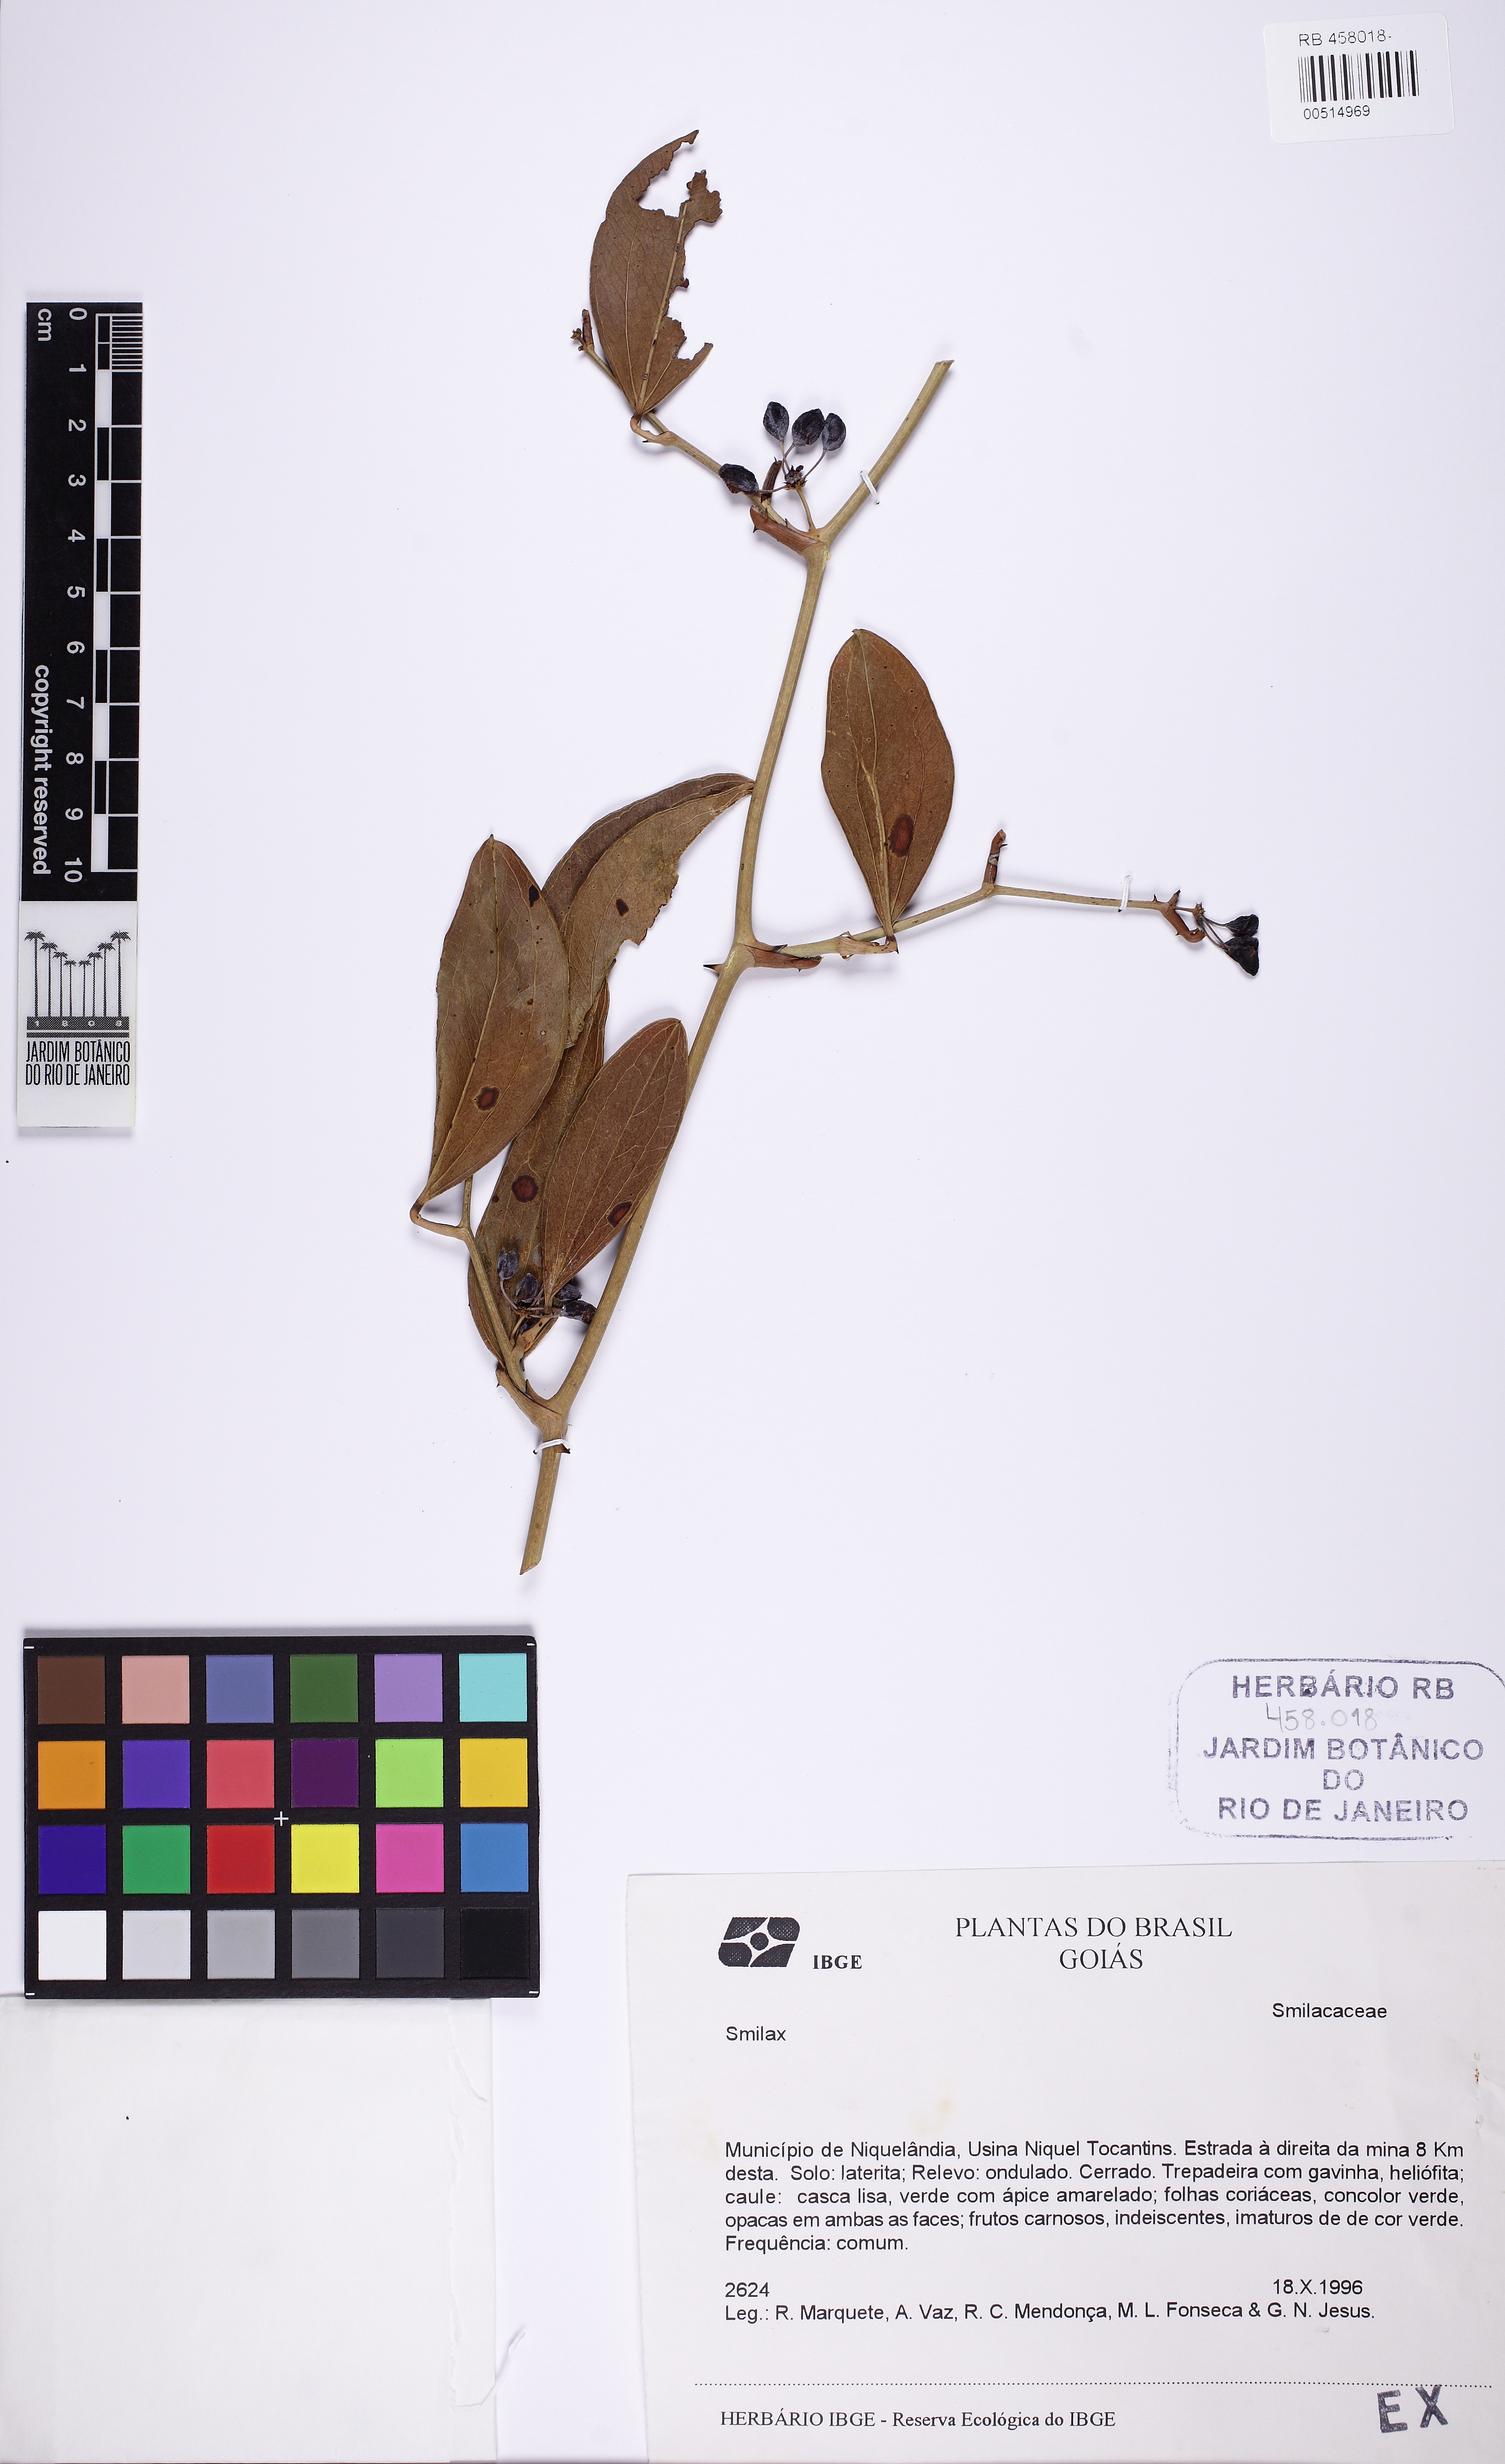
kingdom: Plantae
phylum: Tracheophyta
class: Liliopsida
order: Liliales
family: Smilacaceae
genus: Smilax
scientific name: Smilax
